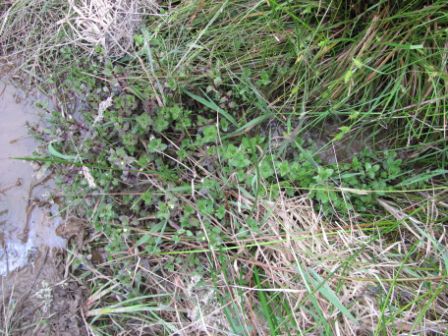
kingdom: Plantae
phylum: Tracheophyta
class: Liliopsida
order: Poales
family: Cyperaceae
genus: Carex
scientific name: Carex punctata
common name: Dotted sedge
